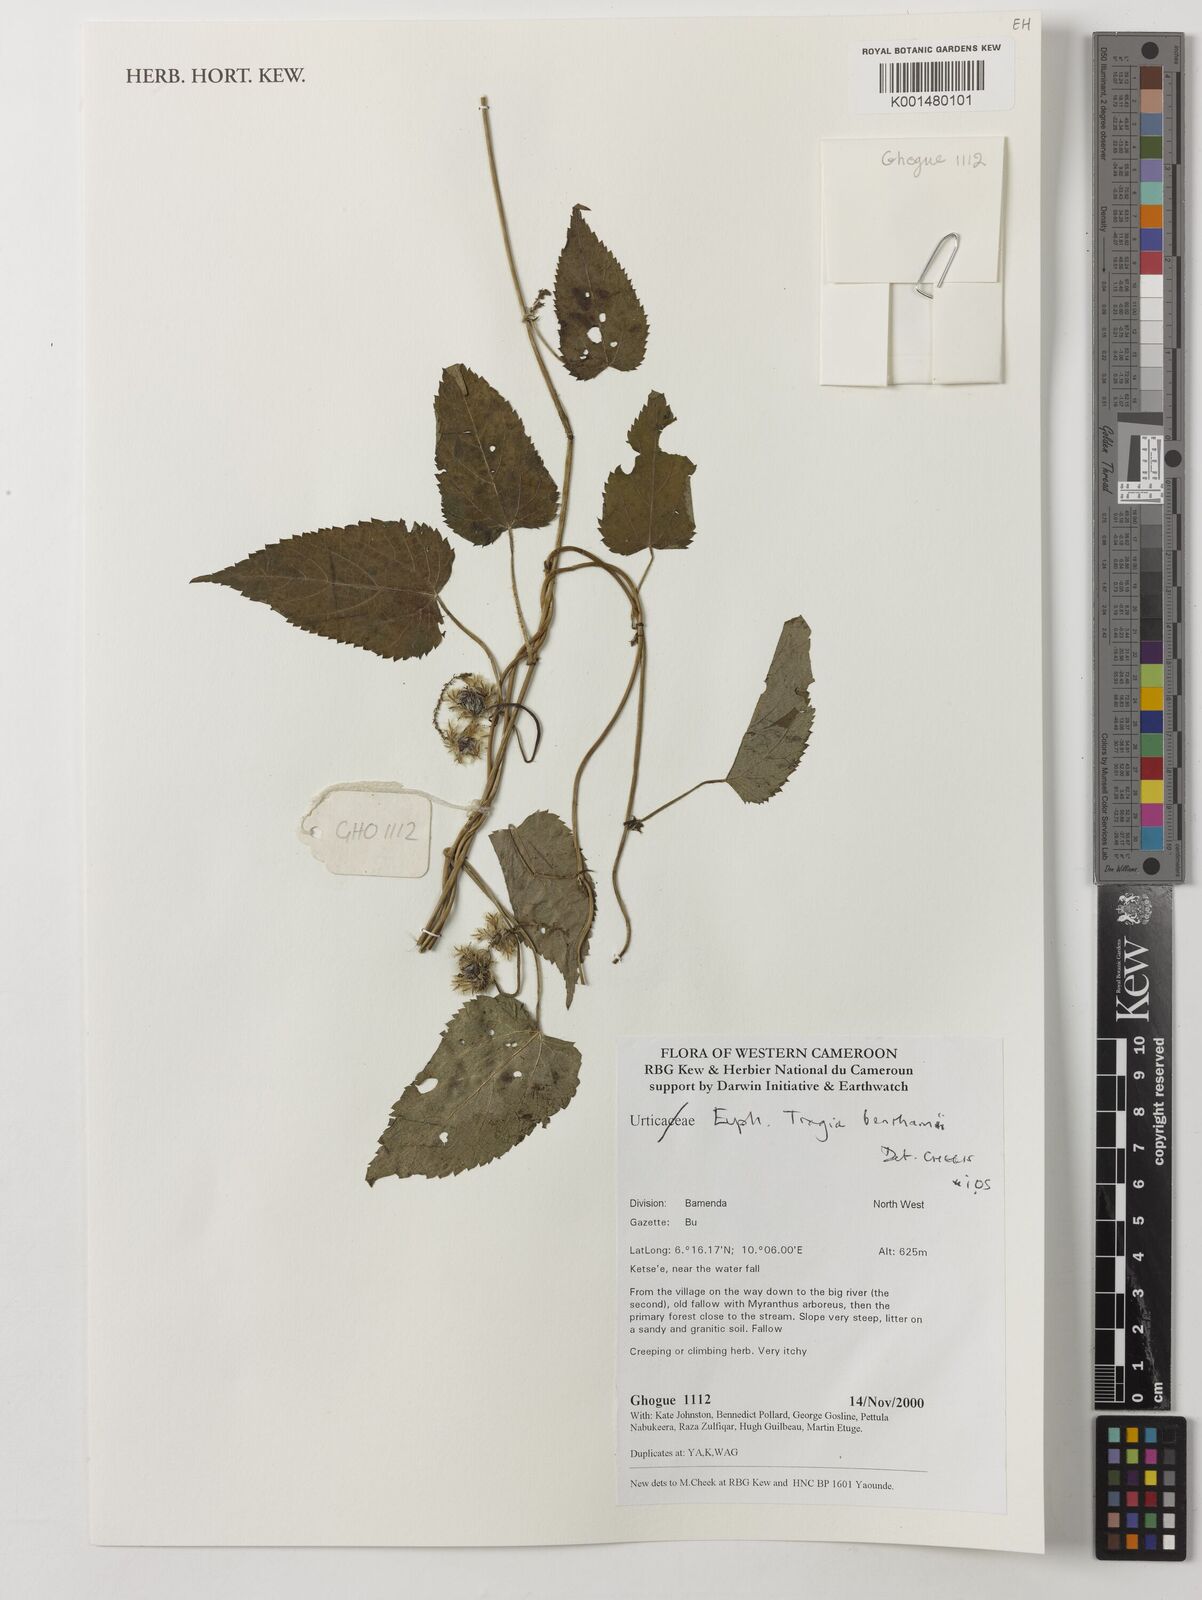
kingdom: Plantae
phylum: Tracheophyta
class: Magnoliopsida
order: Malpighiales
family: Euphorbiaceae
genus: Tragia
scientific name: Tragia benthamii
